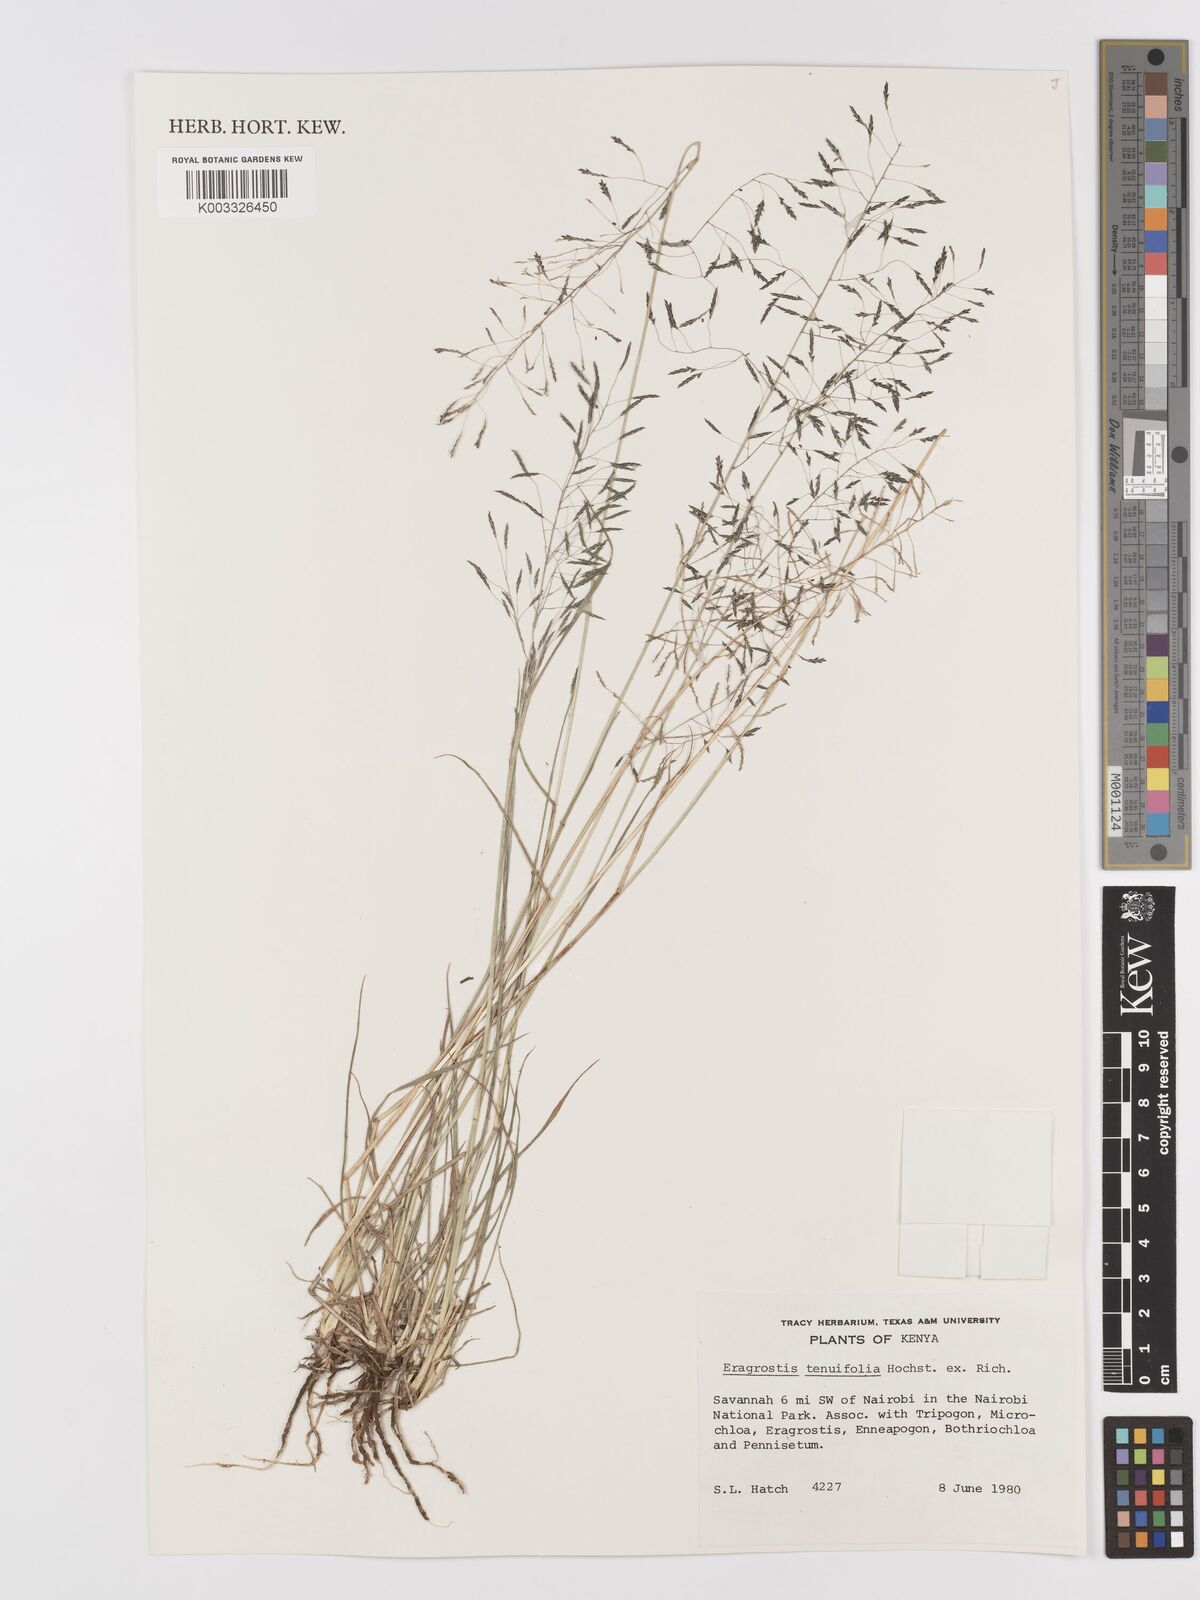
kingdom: Plantae
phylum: Tracheophyta
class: Liliopsida
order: Poales
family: Poaceae
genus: Eragrostis
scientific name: Eragrostis tenuifolia
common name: Elastic grass
